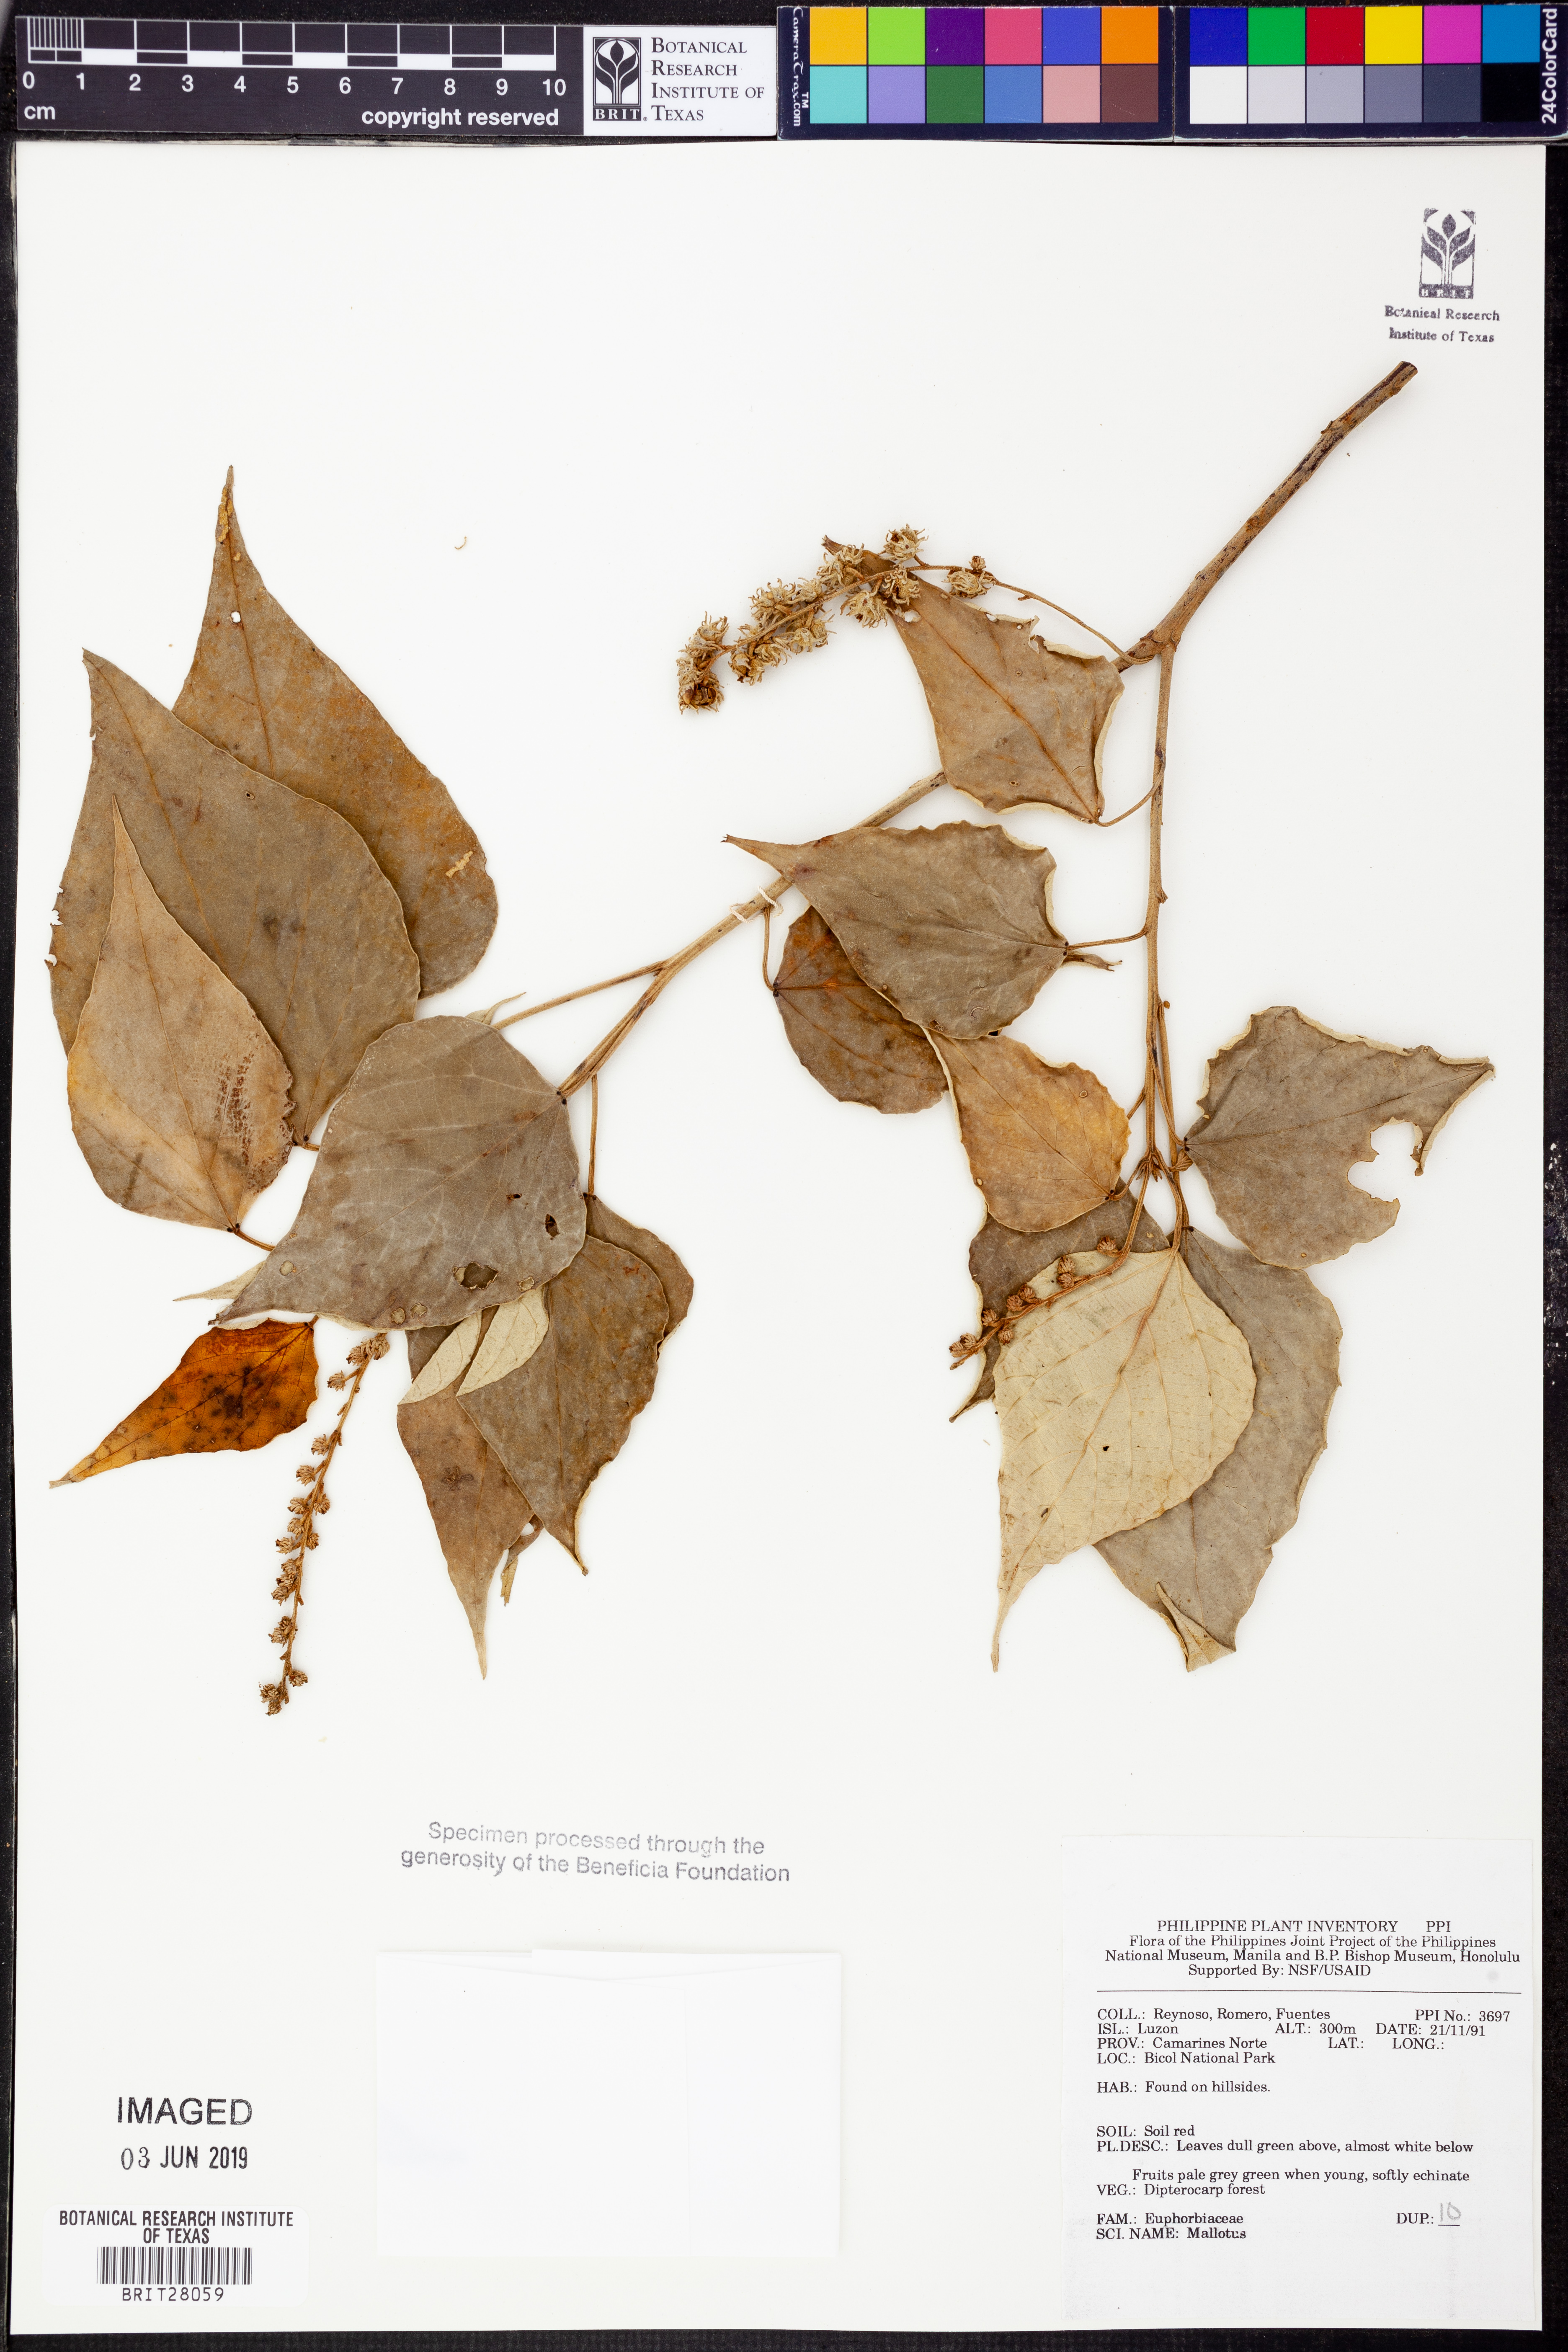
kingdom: Plantae
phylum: Tracheophyta
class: Magnoliopsida
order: Malpighiales
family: Euphorbiaceae
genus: Mallotus
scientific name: Mallotus
